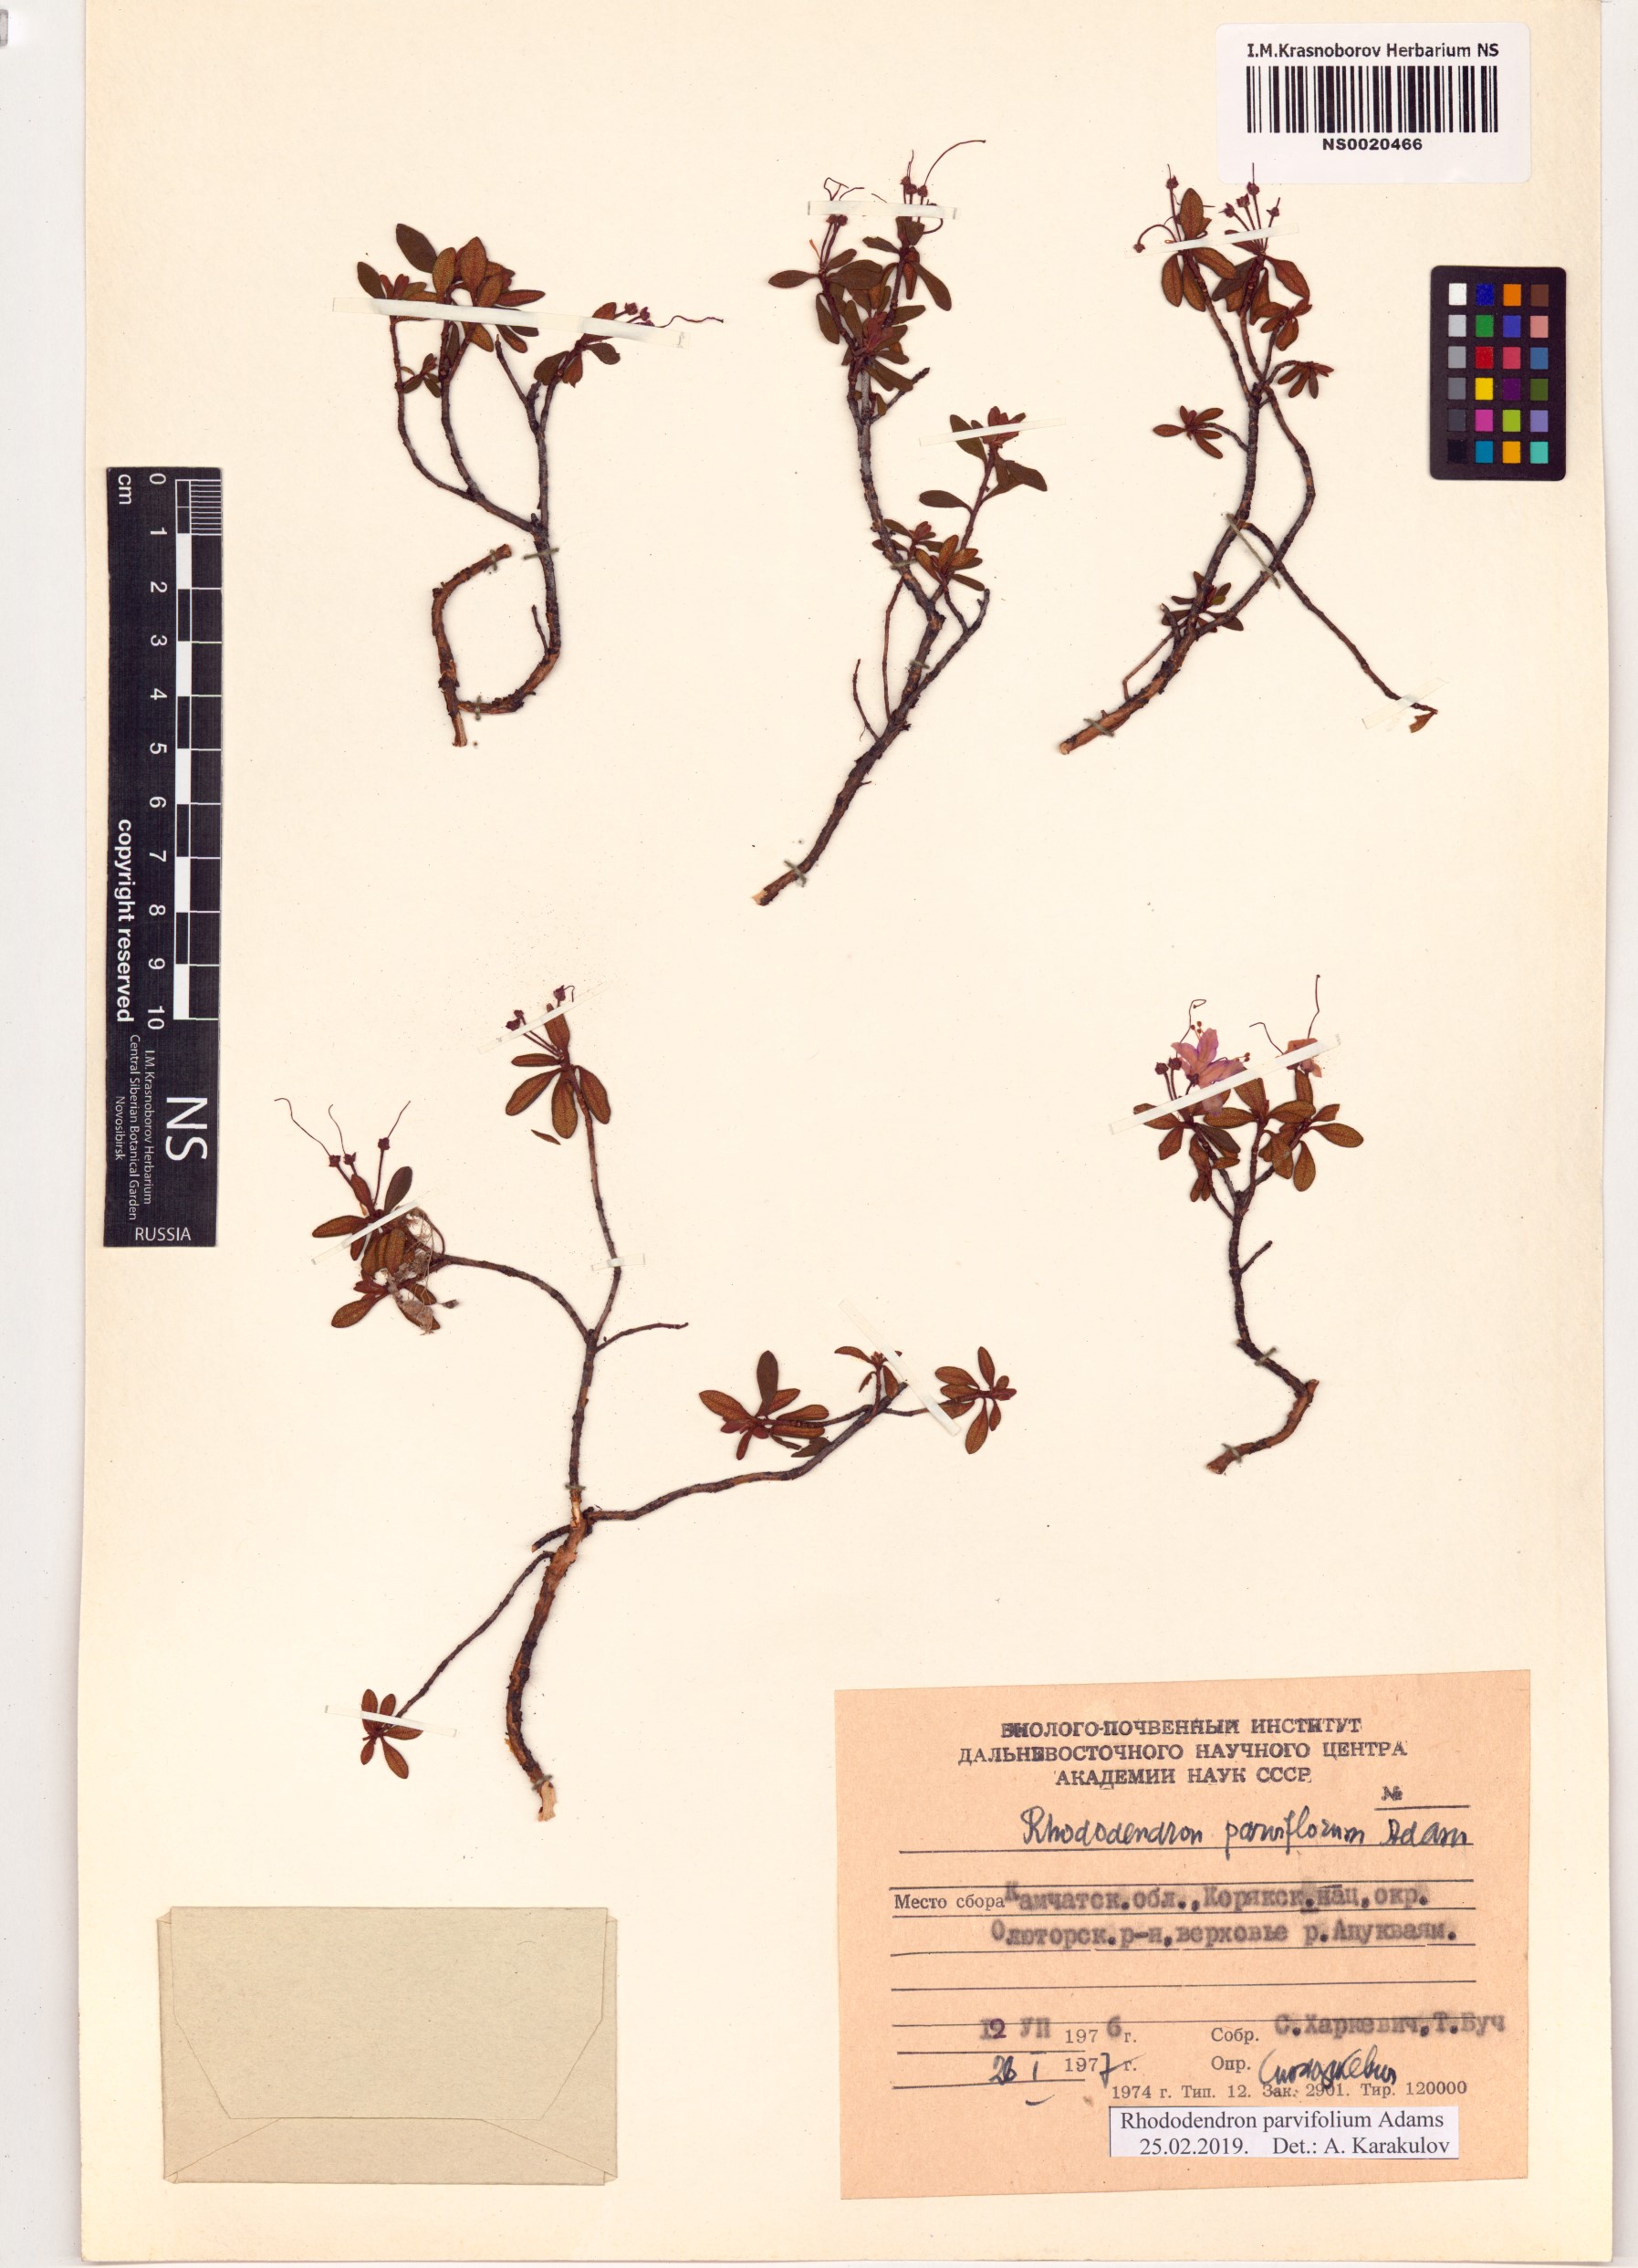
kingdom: Plantae
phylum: Tracheophyta
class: Magnoliopsida
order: Ericales
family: Ericaceae
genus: Rhododendron
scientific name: Rhododendron parvifolium
